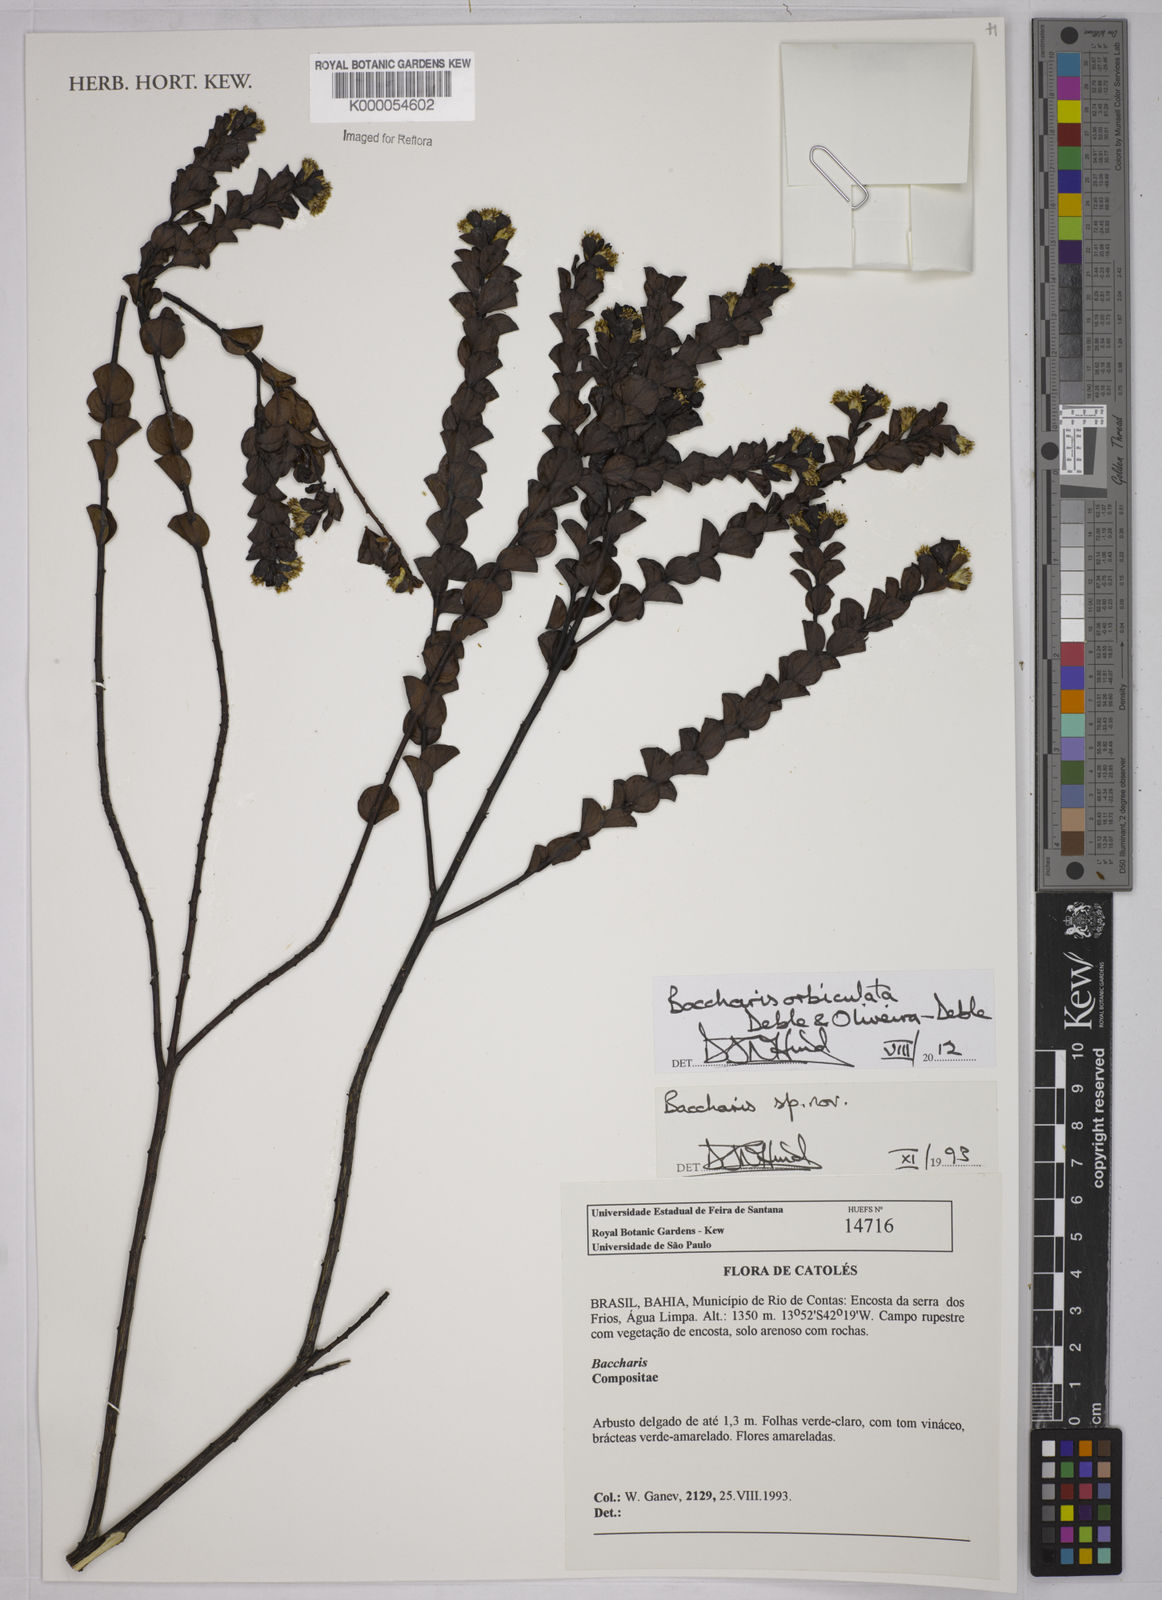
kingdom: Plantae
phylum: Tracheophyta
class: Magnoliopsida
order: Asterales
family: Asteraceae
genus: Baccharis
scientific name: Baccharis
